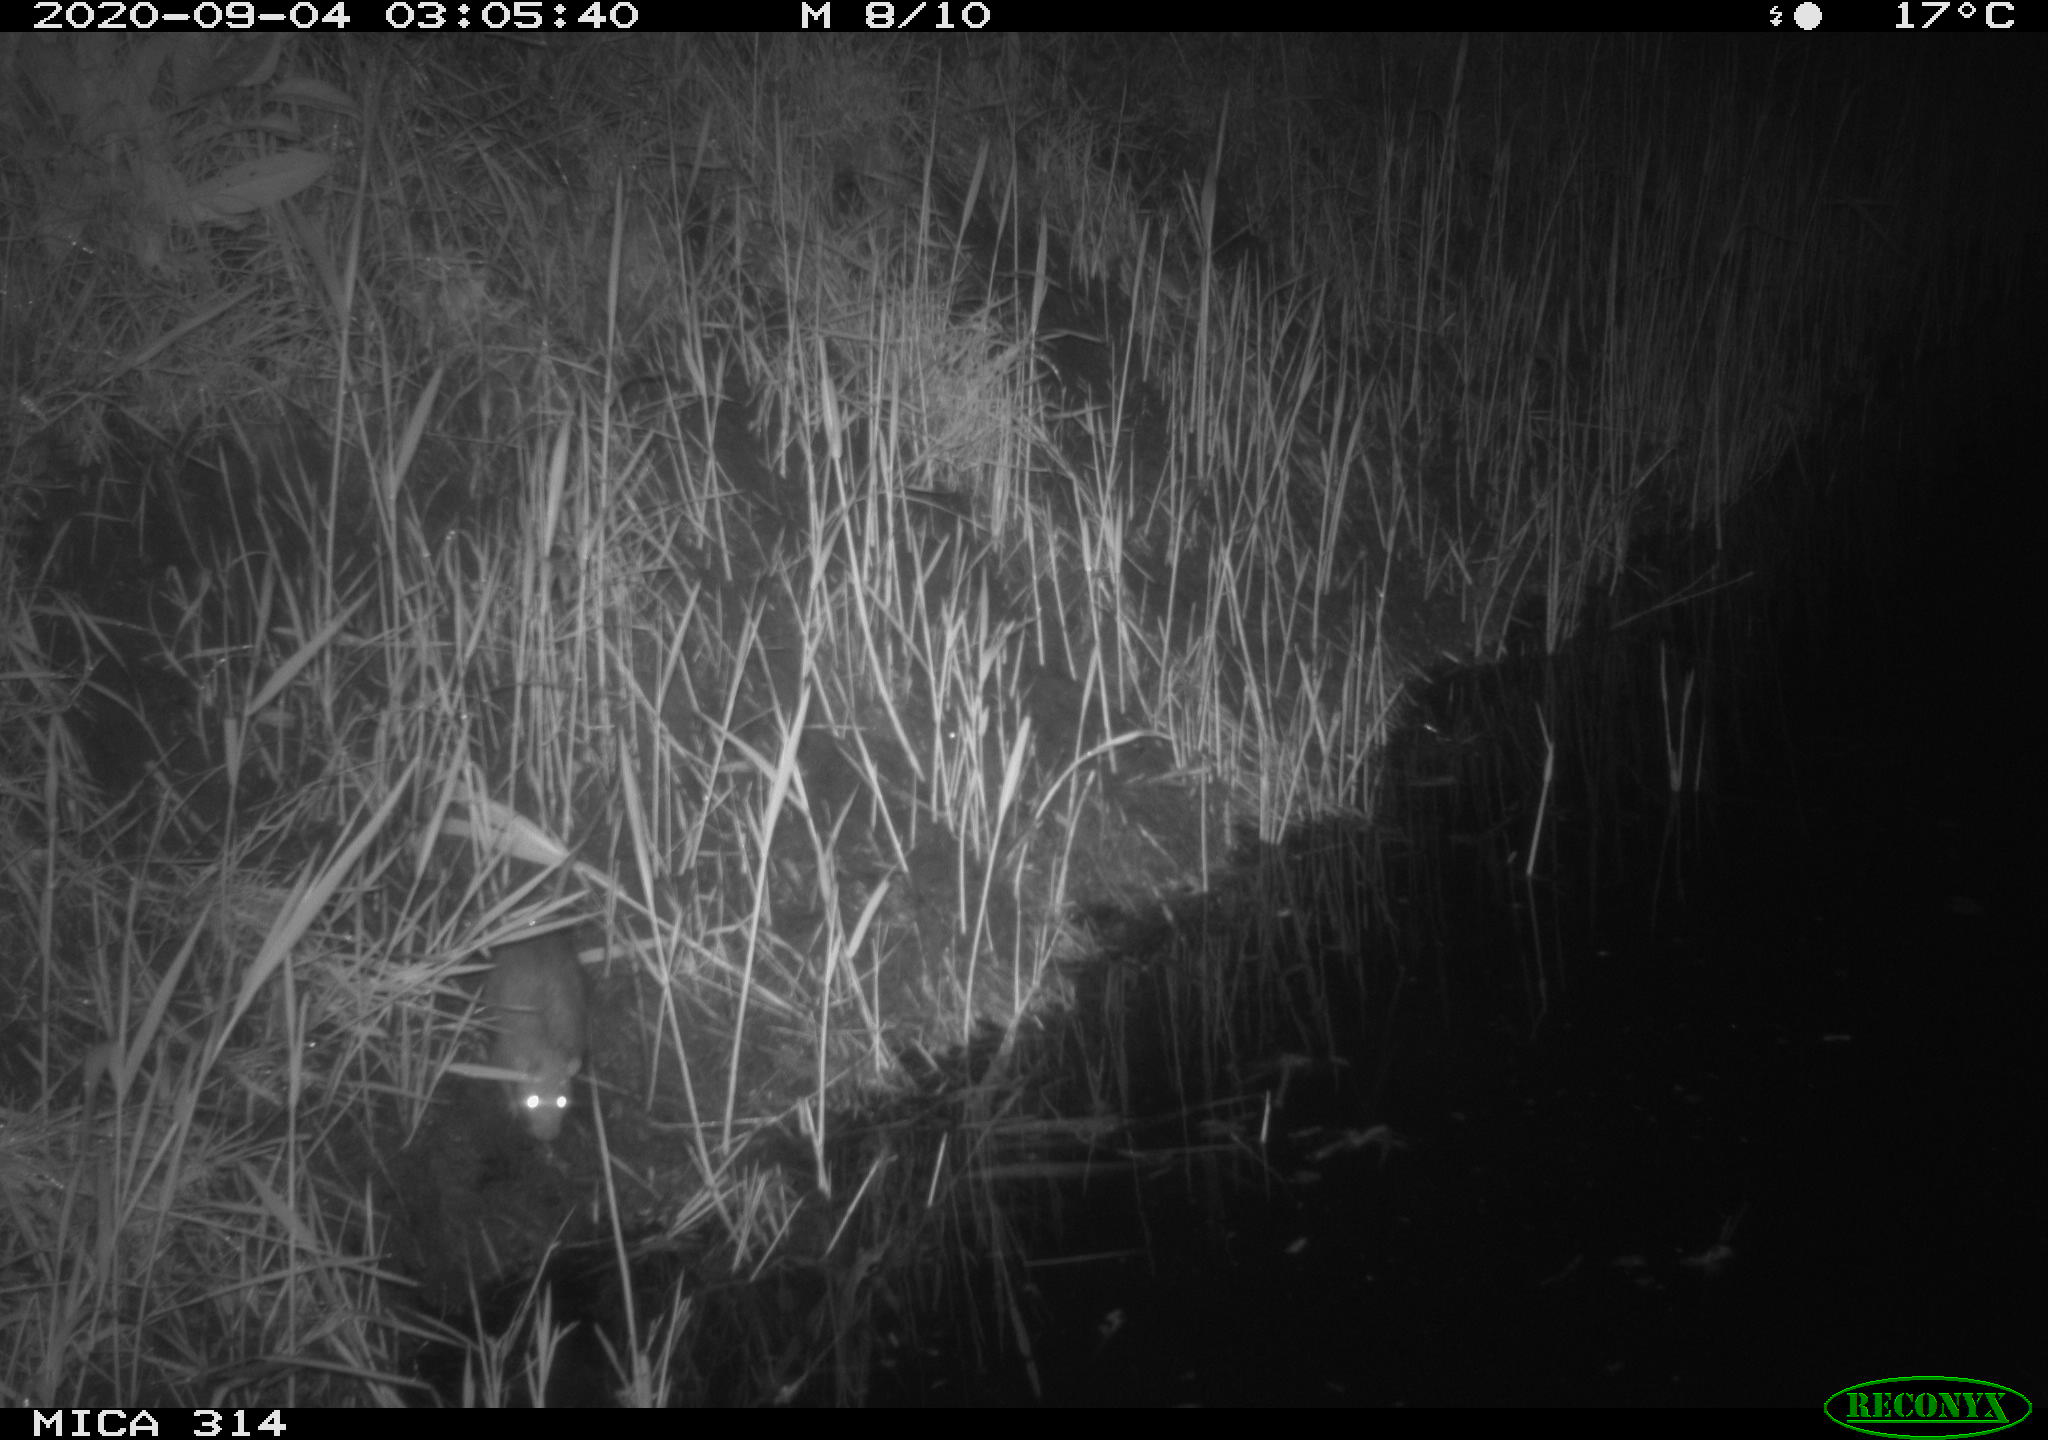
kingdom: Animalia
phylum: Chordata
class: Mammalia
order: Rodentia
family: Muridae
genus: Rattus
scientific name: Rattus norvegicus
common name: Brown rat
